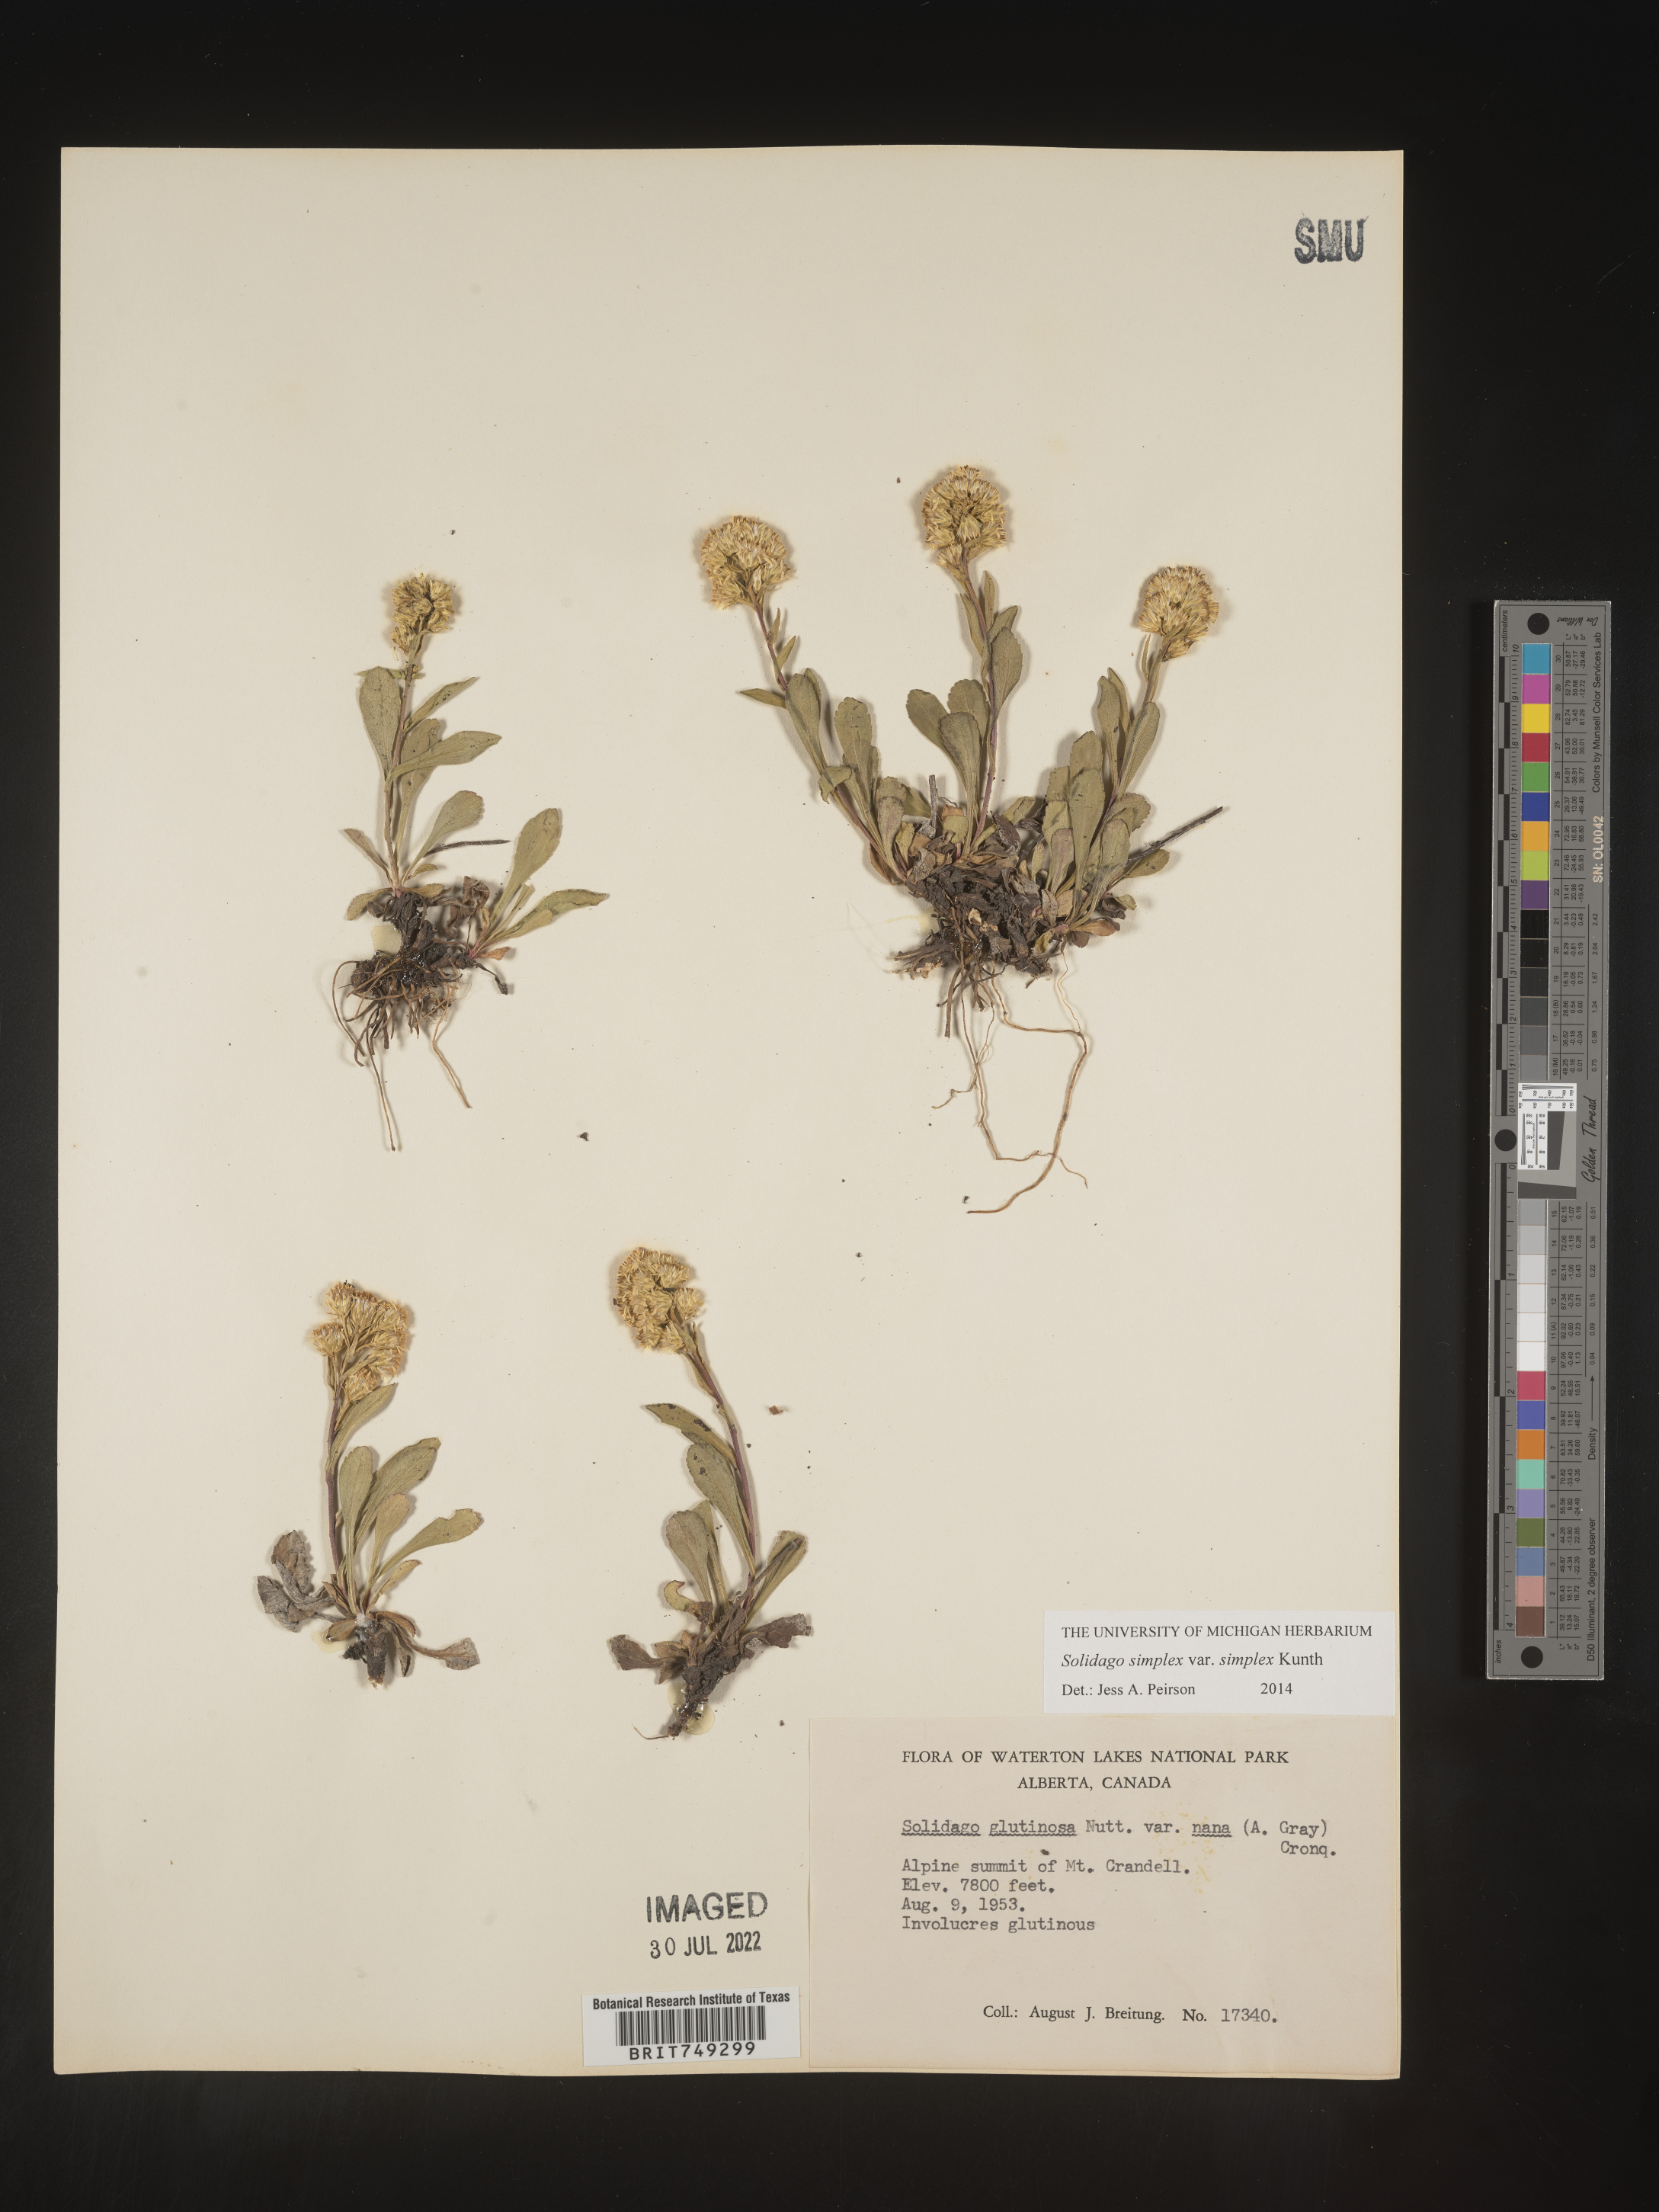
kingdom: Plantae
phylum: Tracheophyta
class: Magnoliopsida
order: Asterales
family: Asteraceae
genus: Solidago
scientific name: Solidago simplex
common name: Sticky goldenrod
